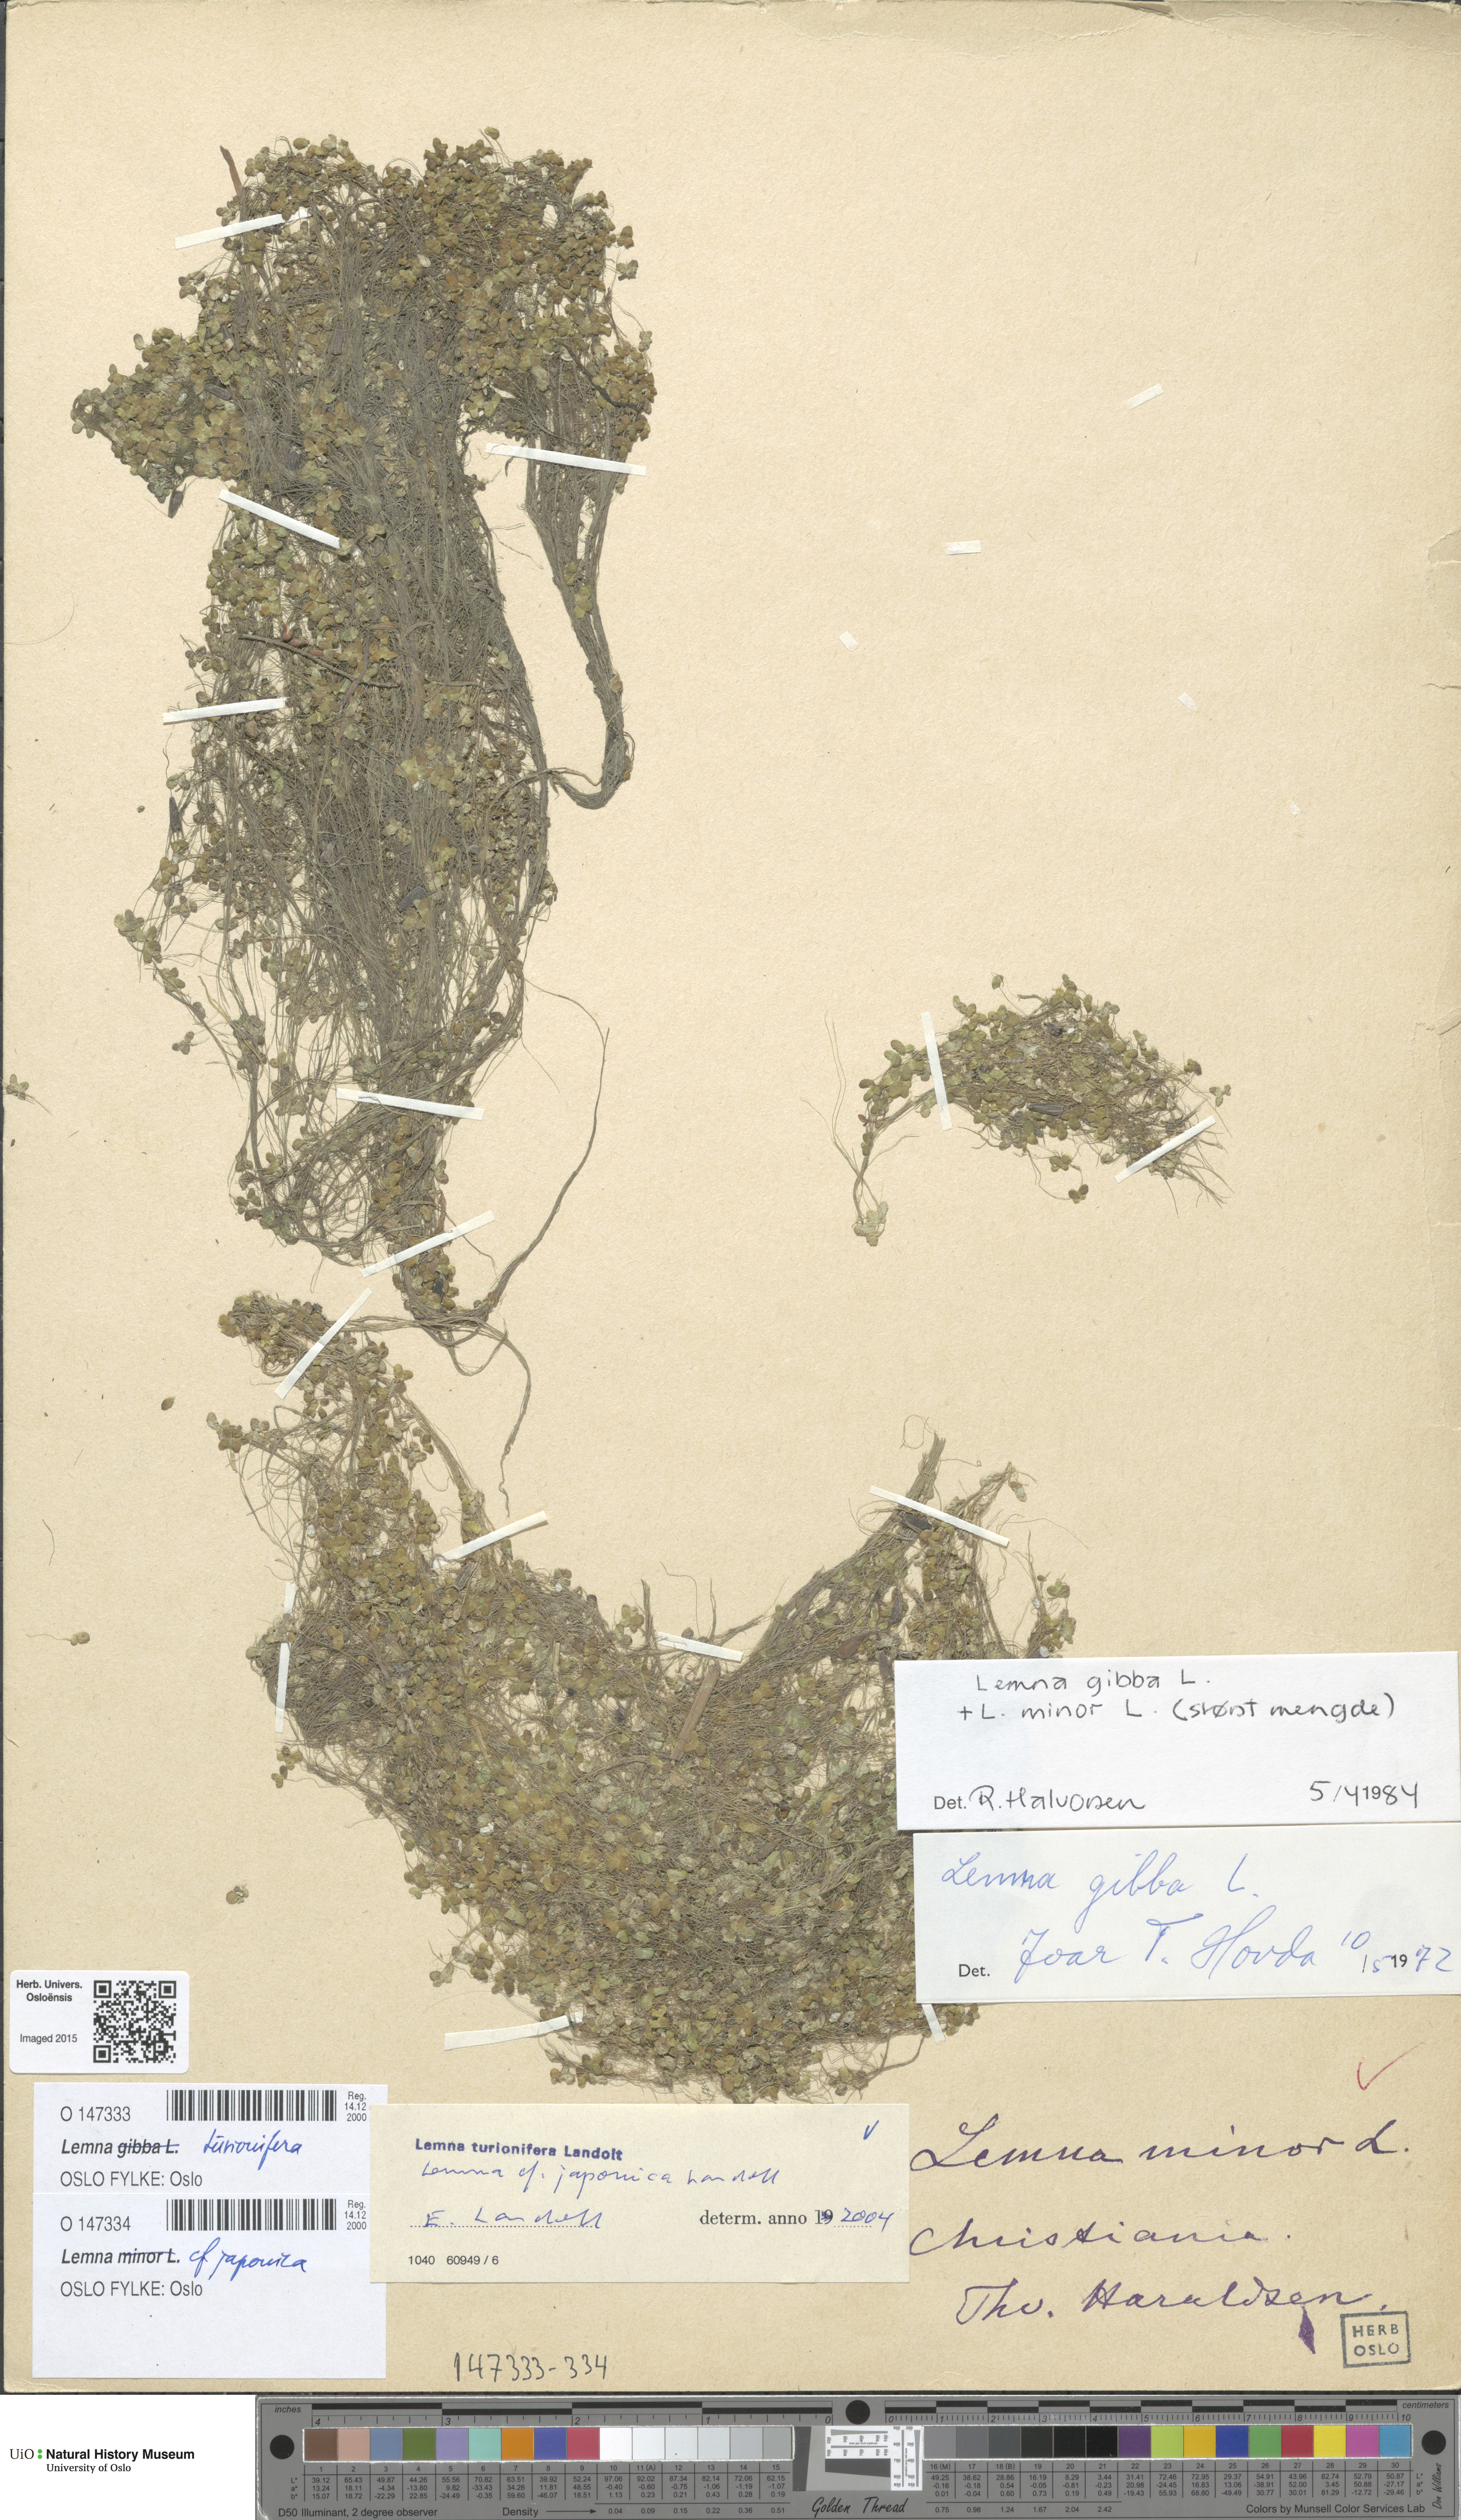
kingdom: Plantae
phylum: Tracheophyta
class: Liliopsida
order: Alismatales
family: Araceae
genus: Lemna
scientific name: Lemna japonica
